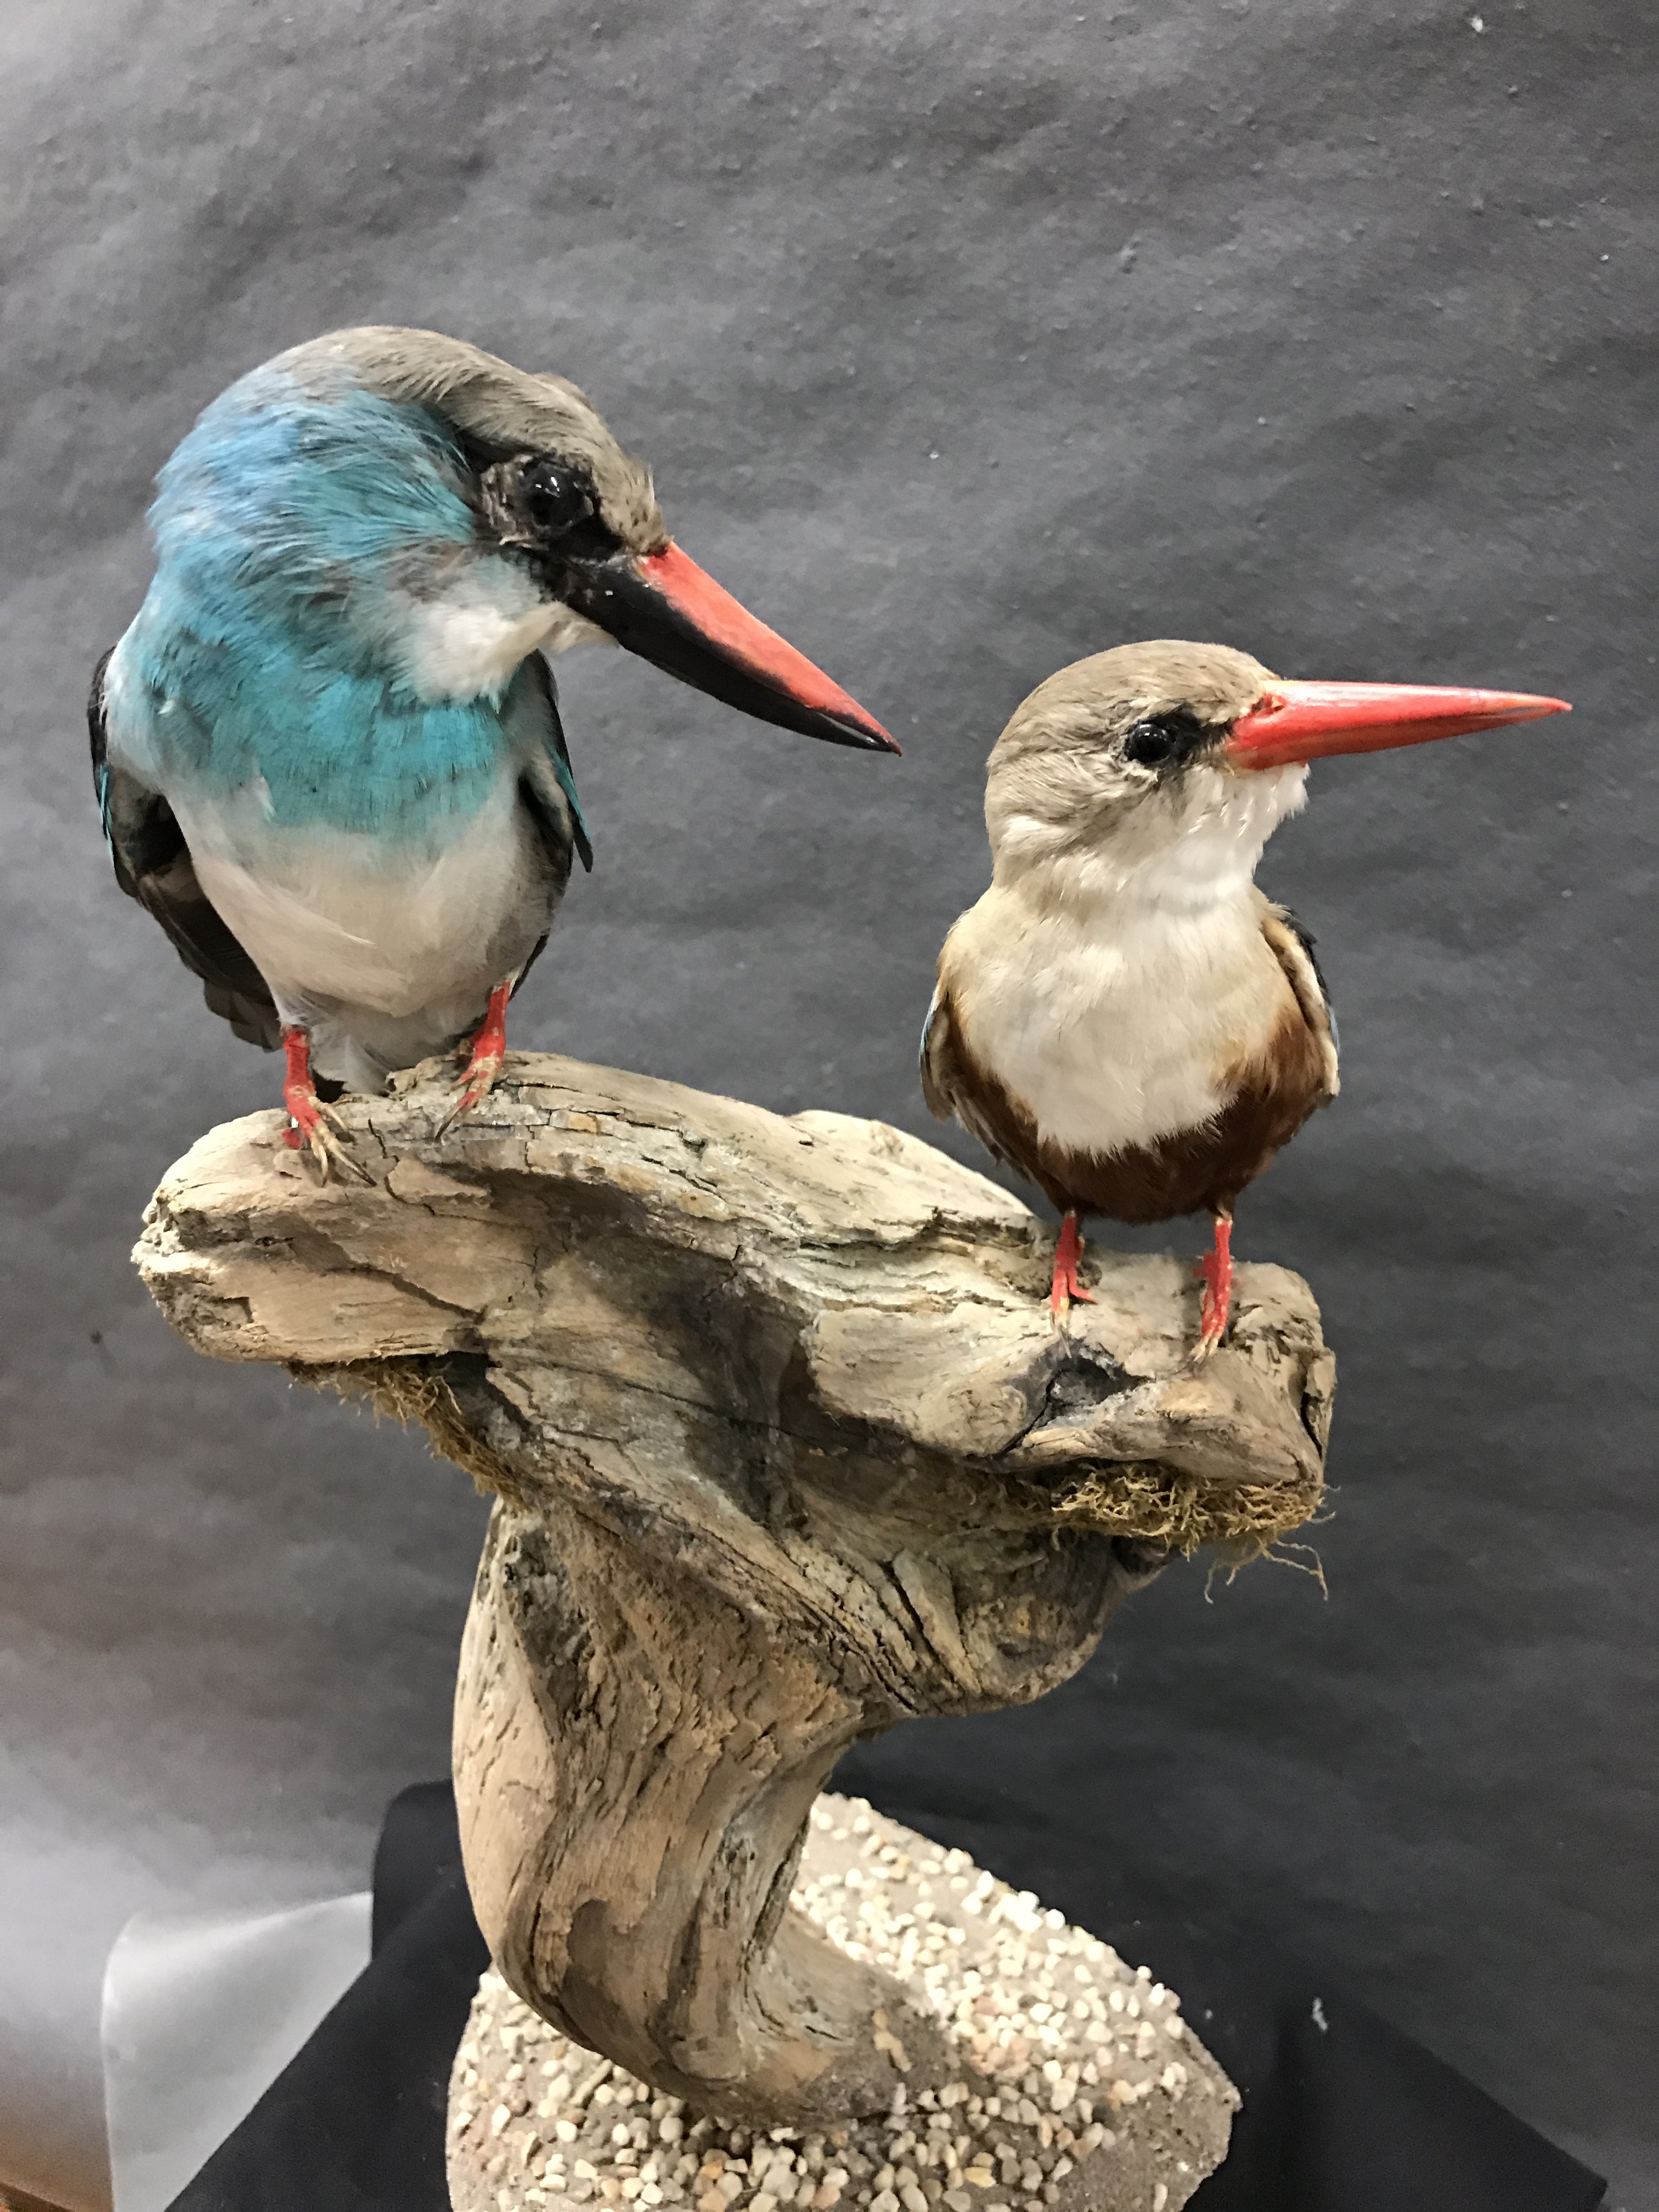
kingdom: Animalia
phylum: Chordata
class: Aves
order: Coraciiformes
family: Alcedinidae
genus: Halcyon
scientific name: Halcyon malimbica
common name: Blue-breasted kingfisher
